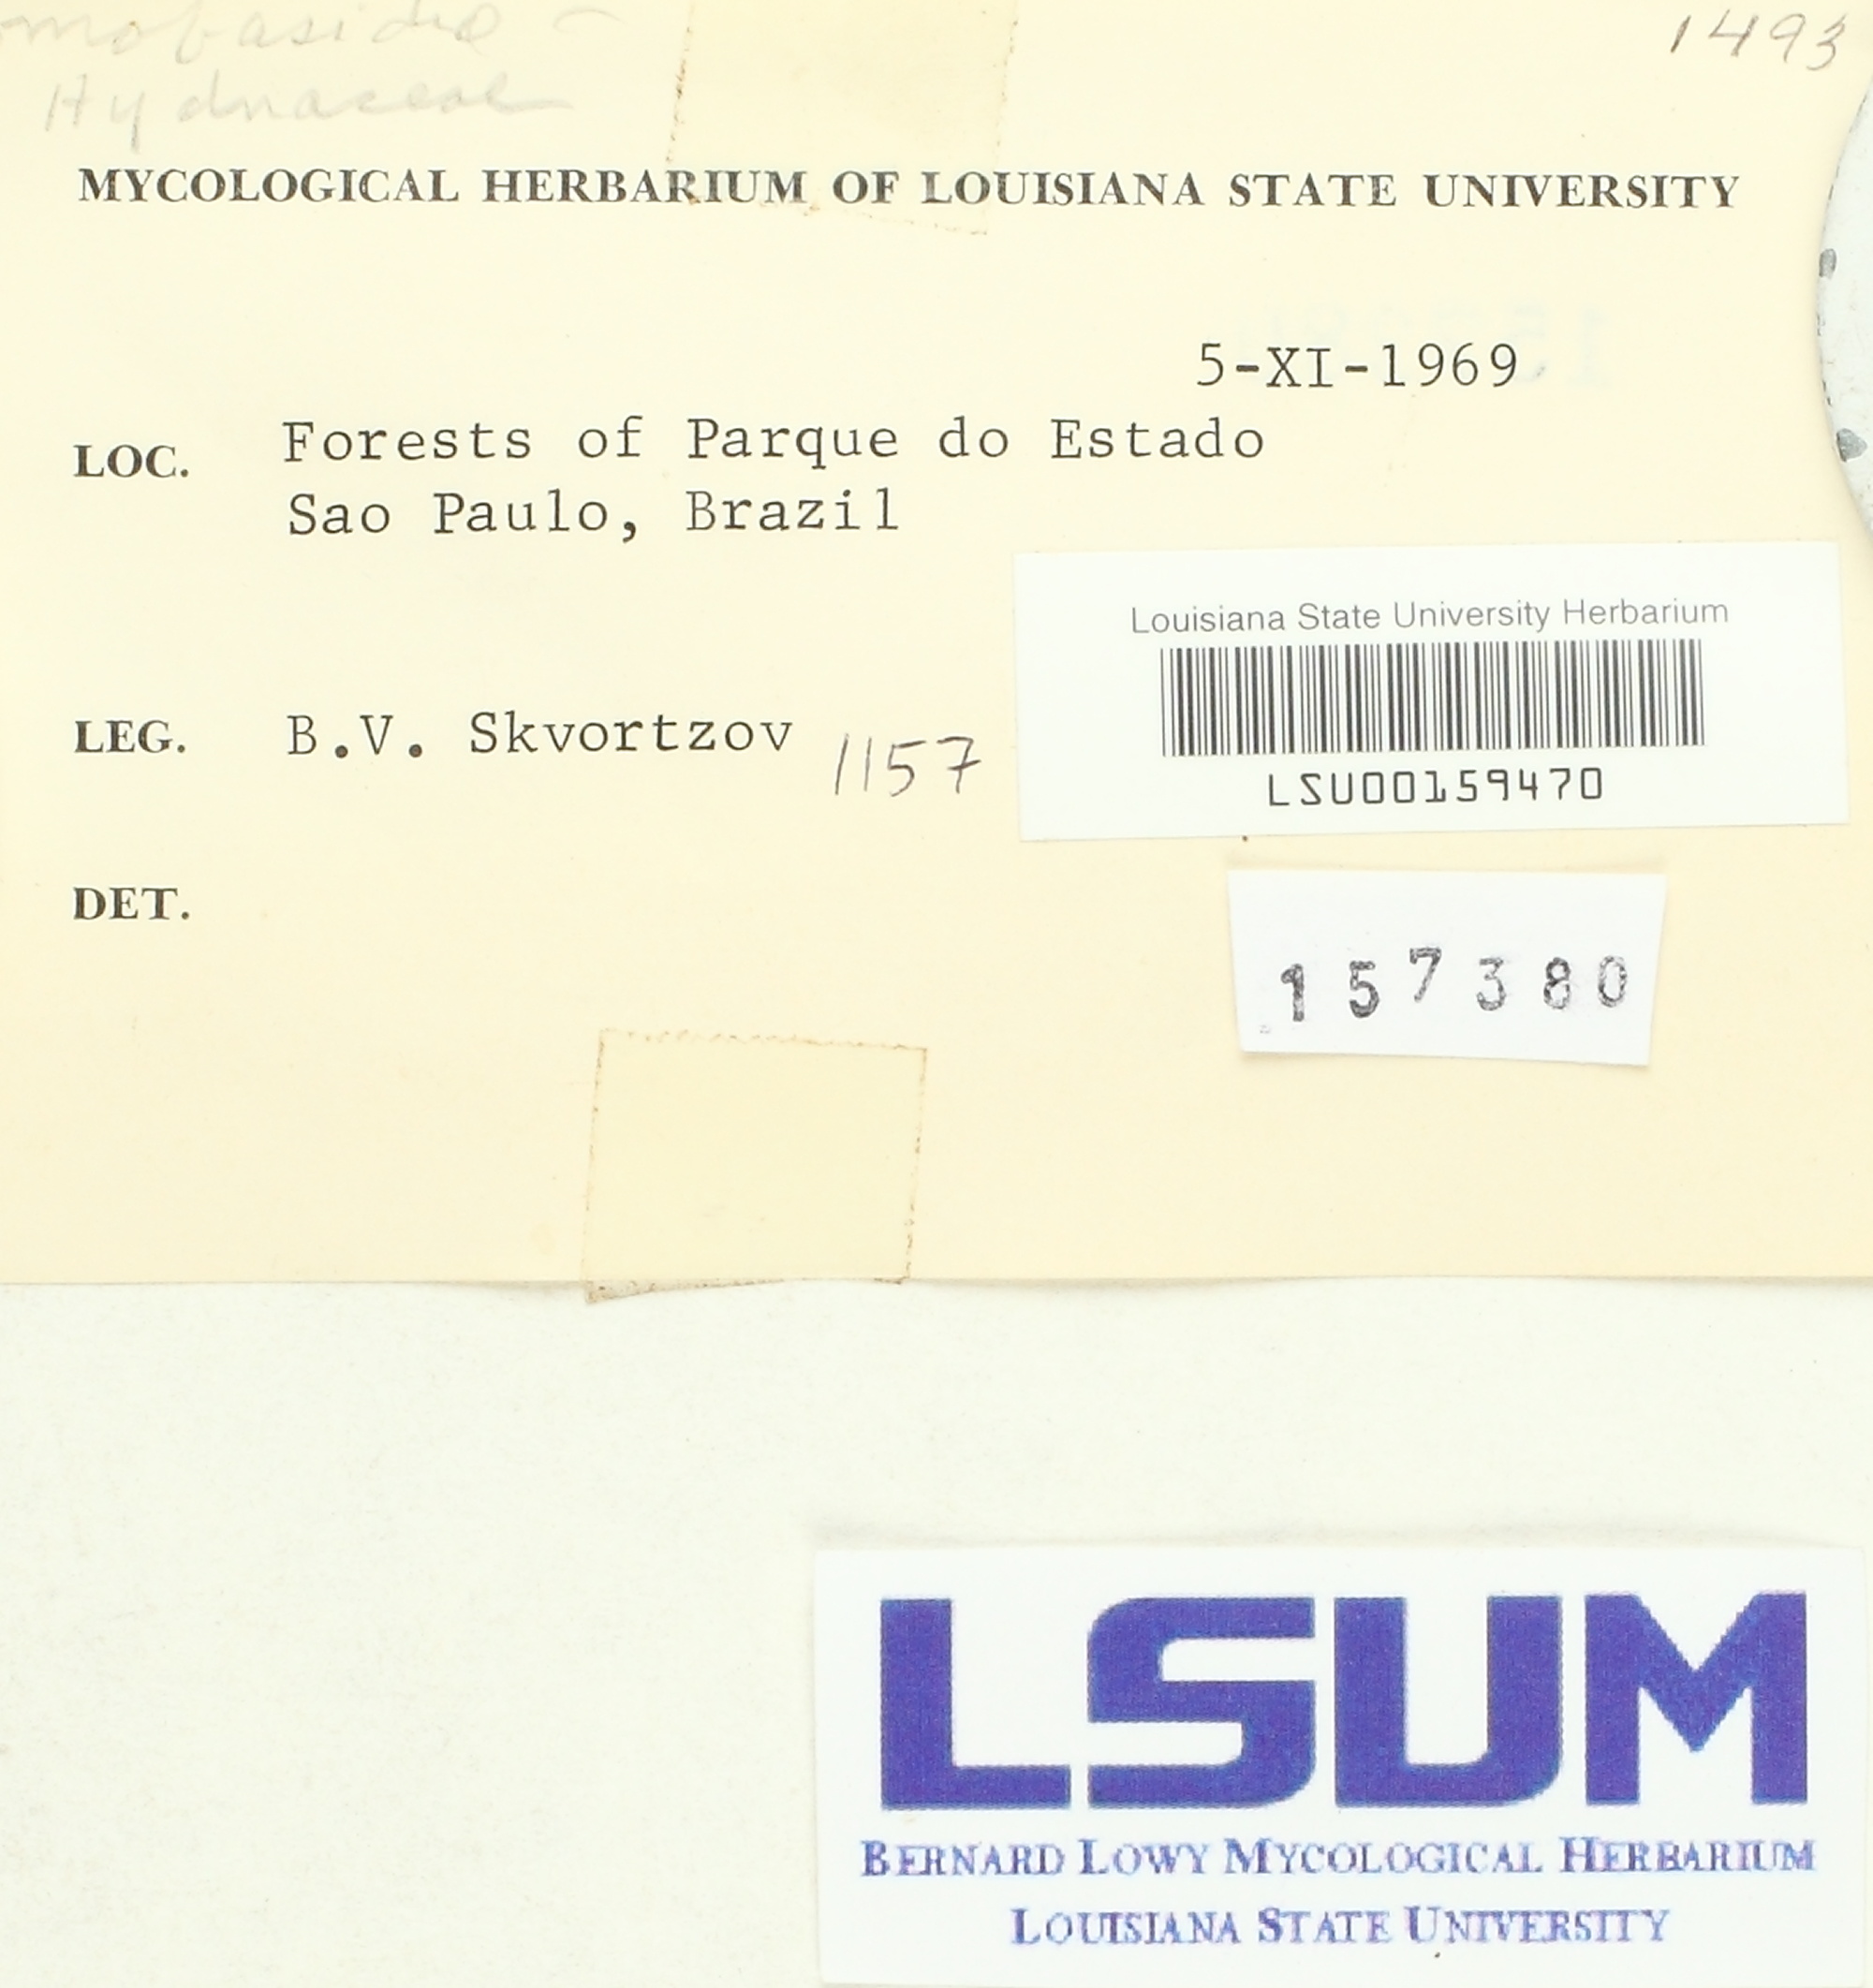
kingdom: Fungi
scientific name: Fungi
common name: Fungi
